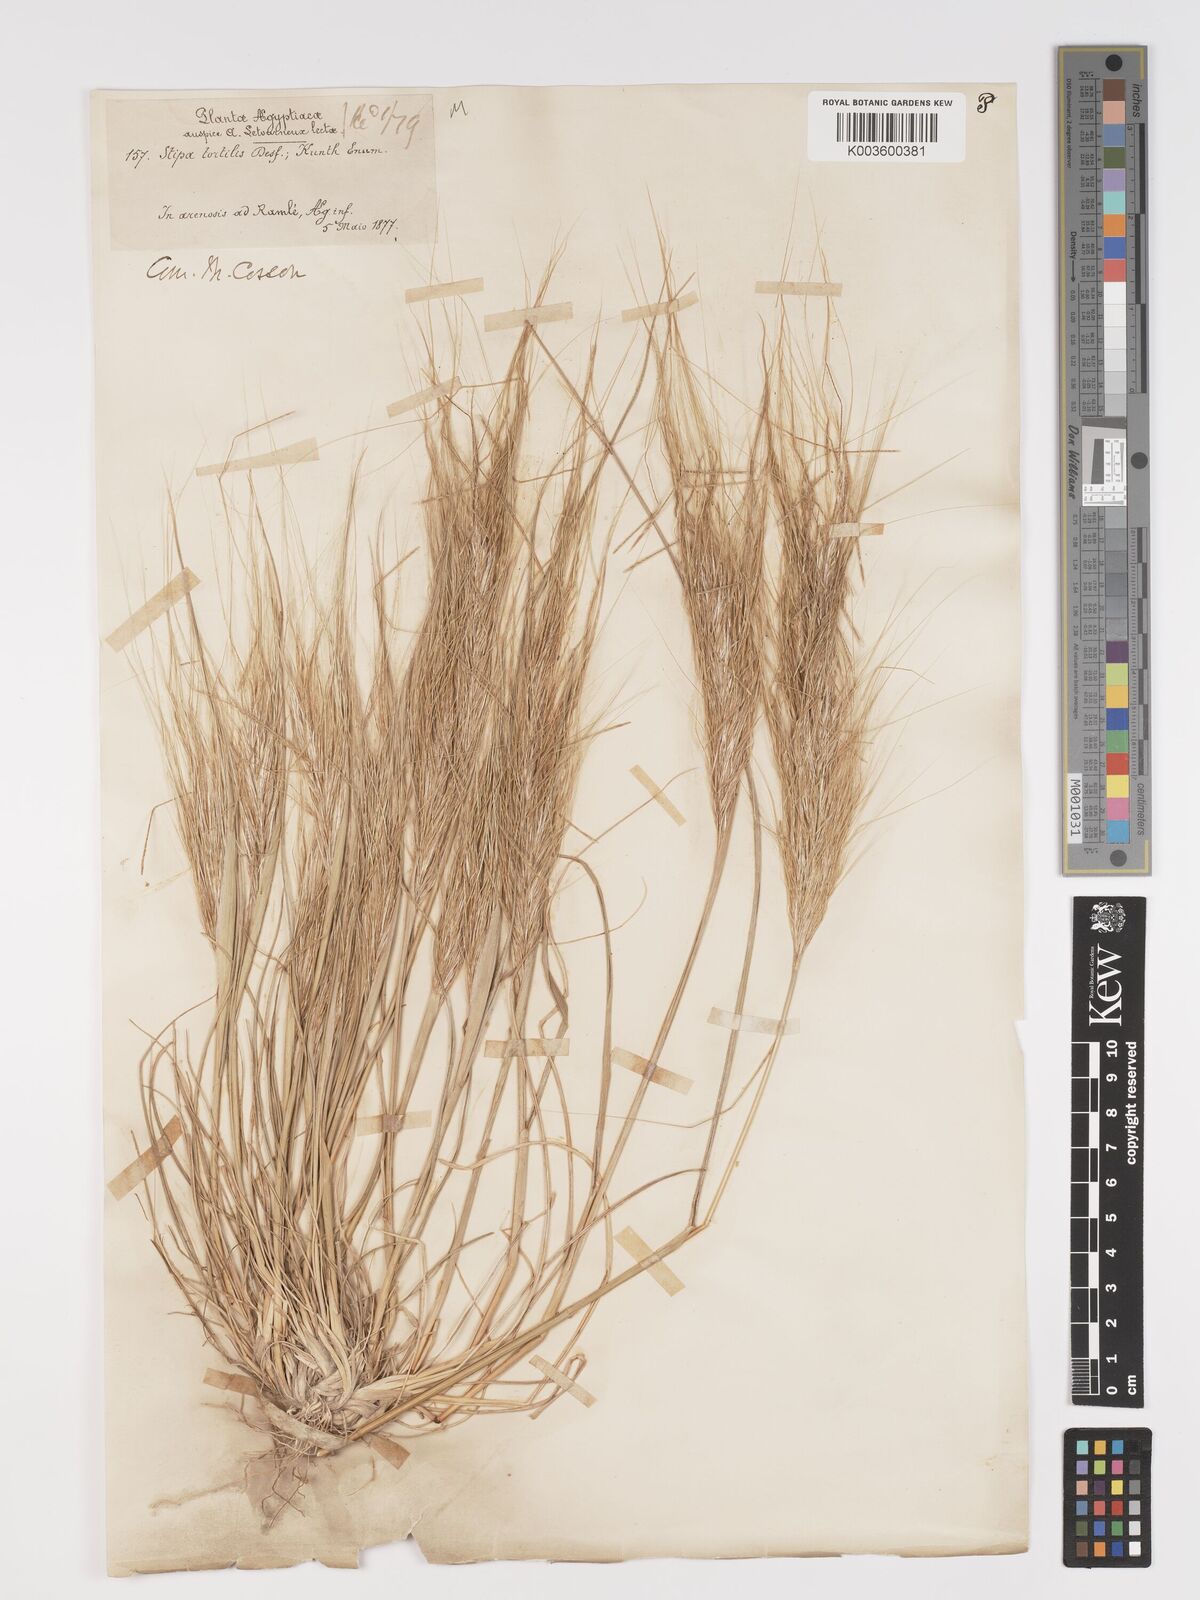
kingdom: Plantae
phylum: Tracheophyta
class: Liliopsida
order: Poales
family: Poaceae
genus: Stipellula
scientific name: Stipellula capensis
